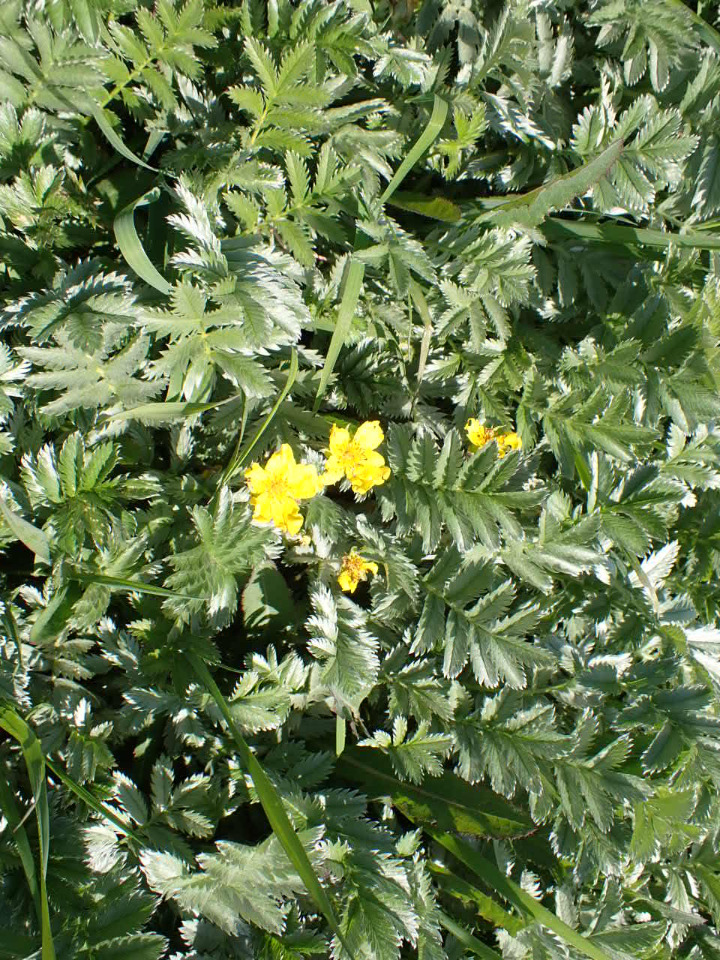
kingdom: Plantae
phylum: Tracheophyta
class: Magnoliopsida
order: Rosales
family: Rosaceae
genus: Argentina
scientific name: Argentina anserina
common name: Gåsepotentil
